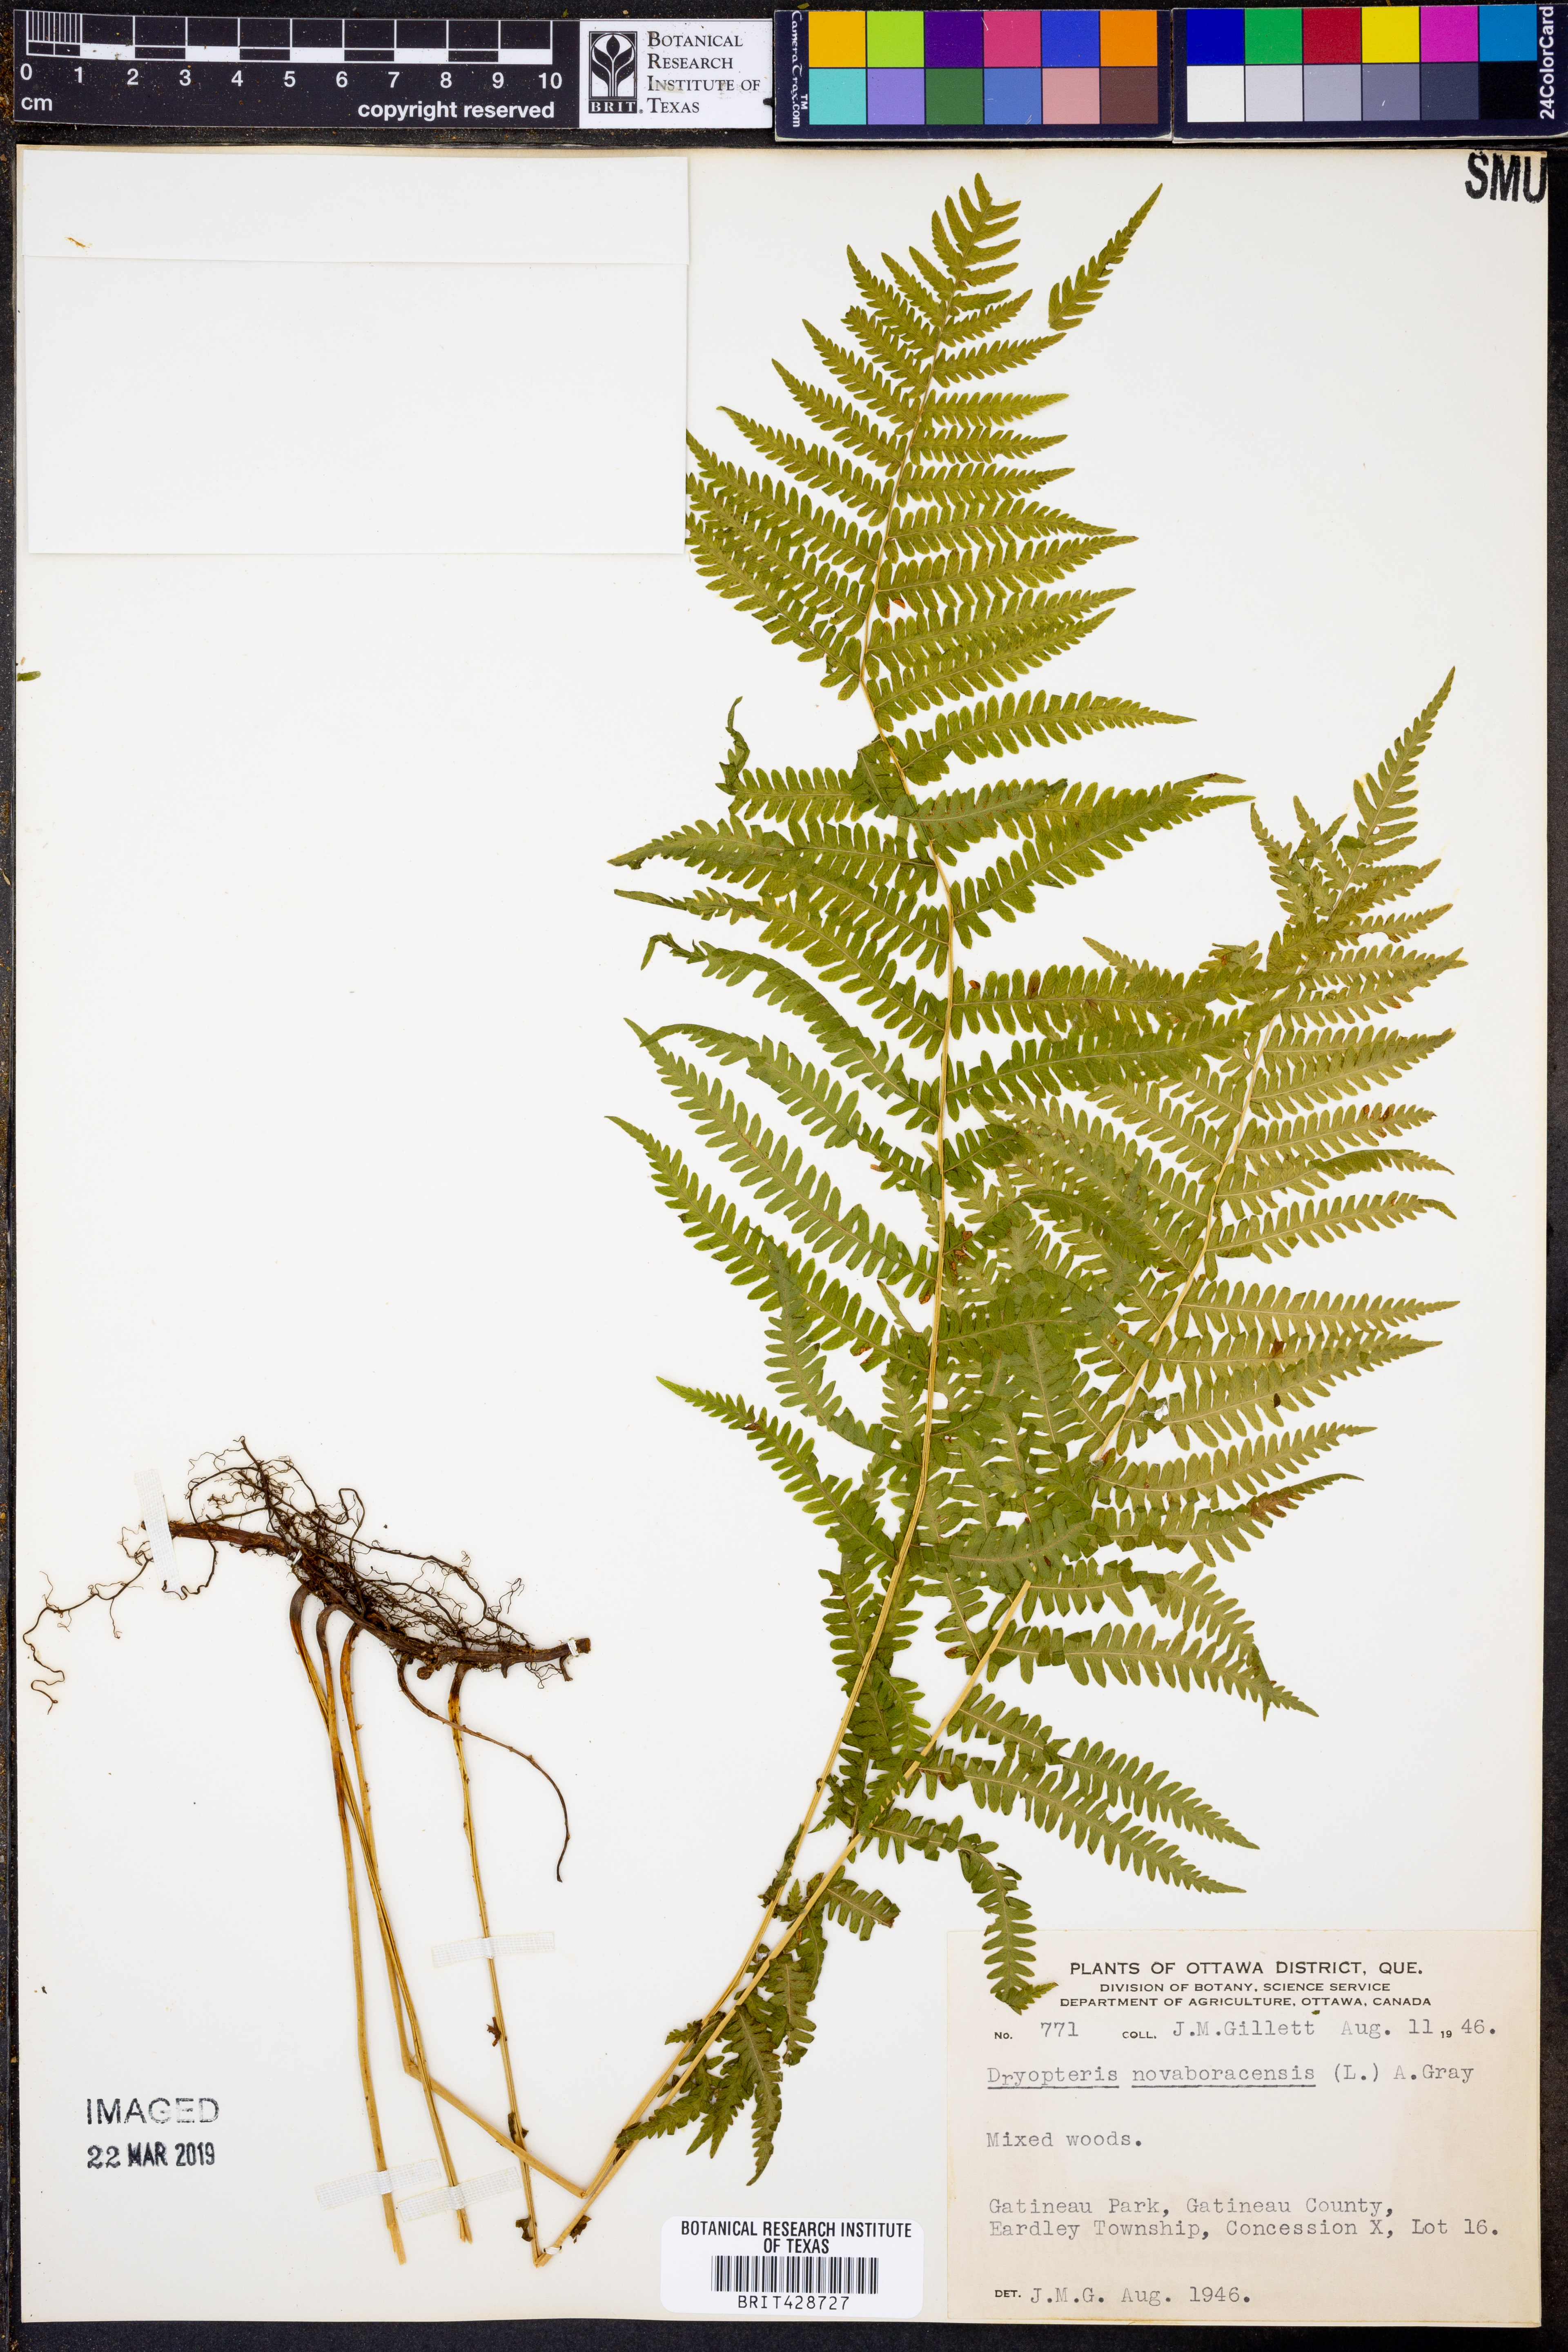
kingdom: Plantae
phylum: Tracheophyta
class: Polypodiopsida
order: Polypodiales
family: Thelypteridaceae
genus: Amauropelta
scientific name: Amauropelta noveboracensis
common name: New york fern
